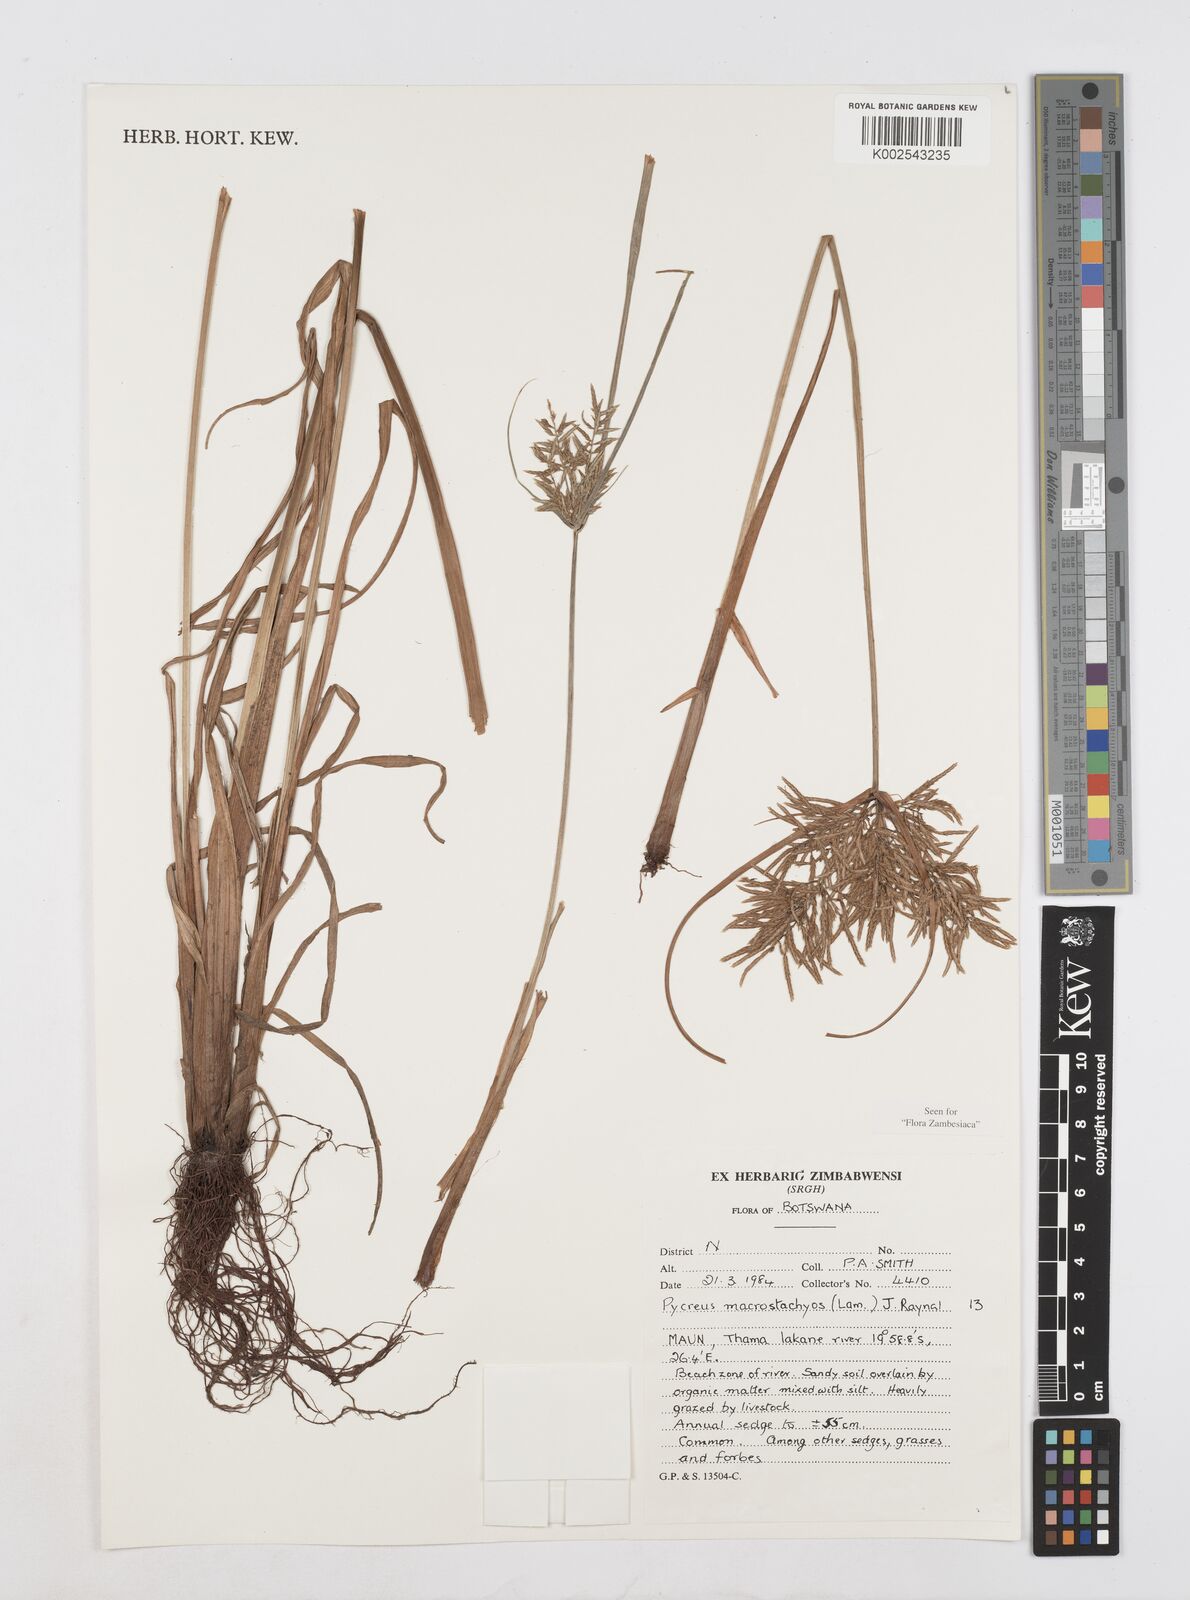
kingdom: Plantae
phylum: Tracheophyta
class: Liliopsida
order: Poales
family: Cyperaceae
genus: Cyperus
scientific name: Cyperus macrostachyos
